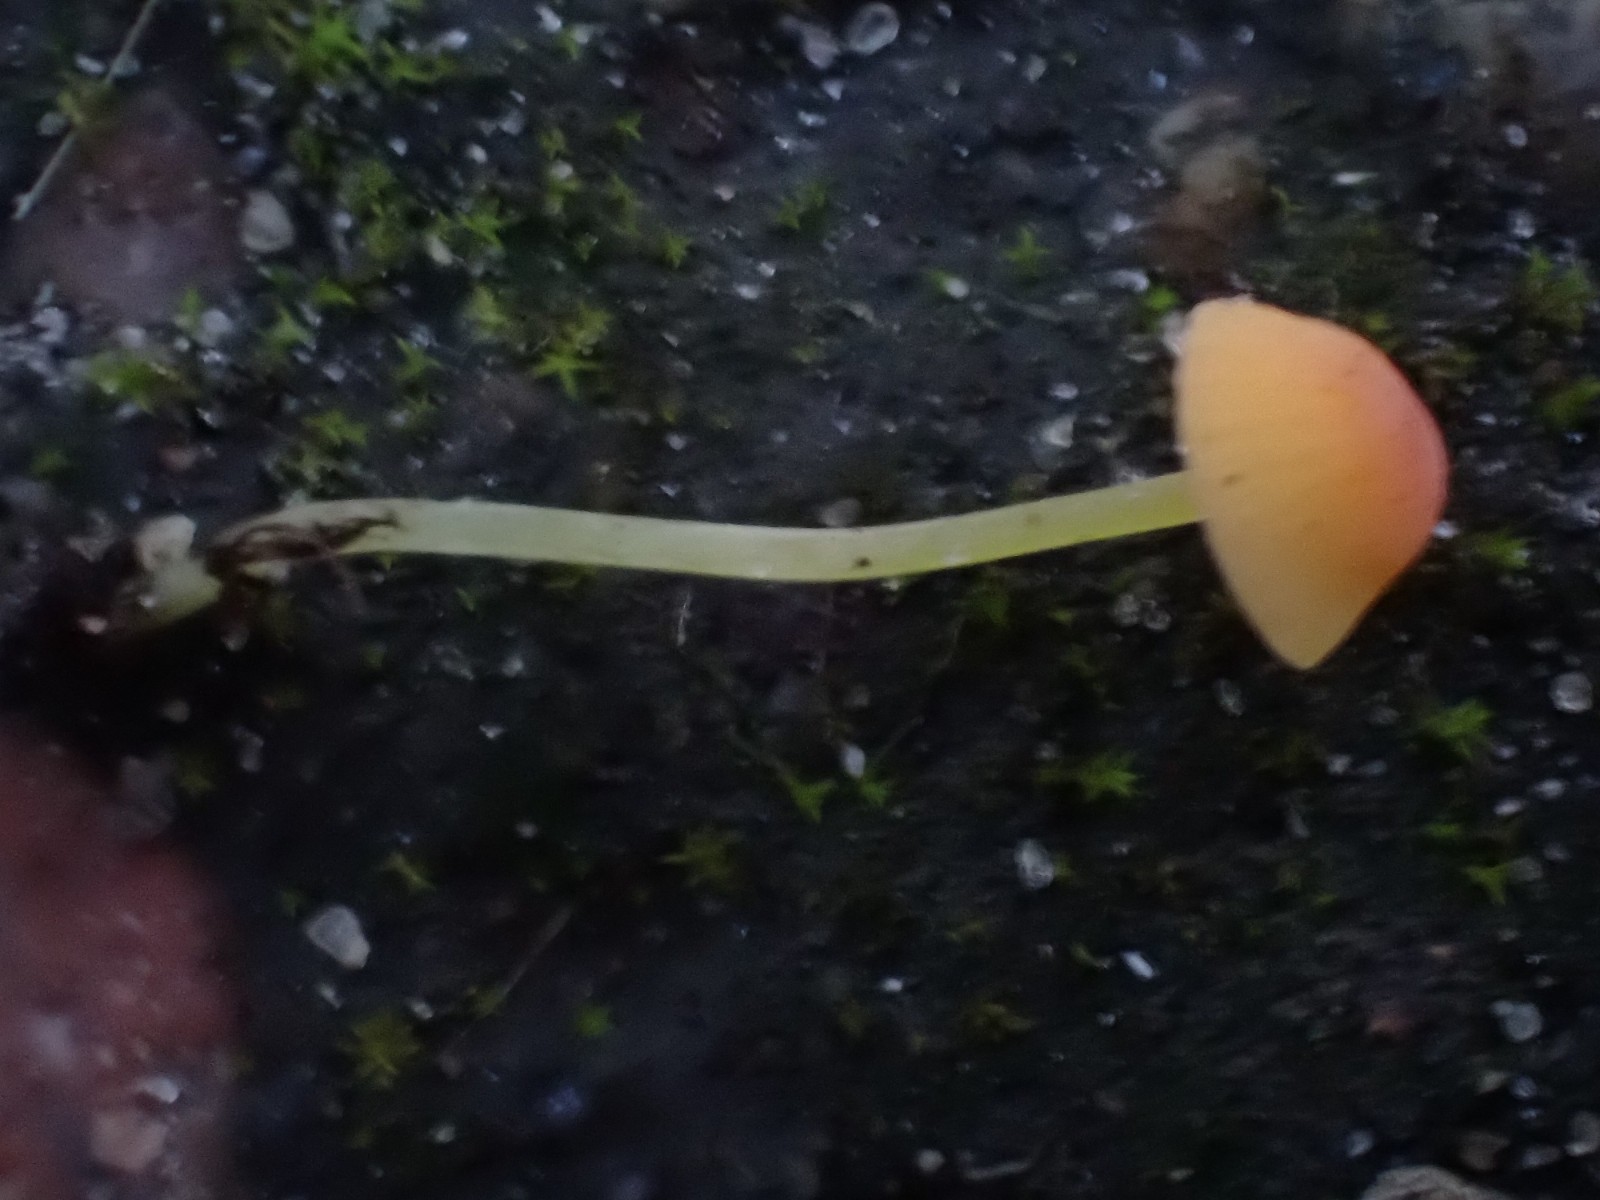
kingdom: Fungi
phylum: Basidiomycota
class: Agaricomycetes
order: Agaricales
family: Mycenaceae
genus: Mycena
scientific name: Mycena acicula
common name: orange huesvamp
